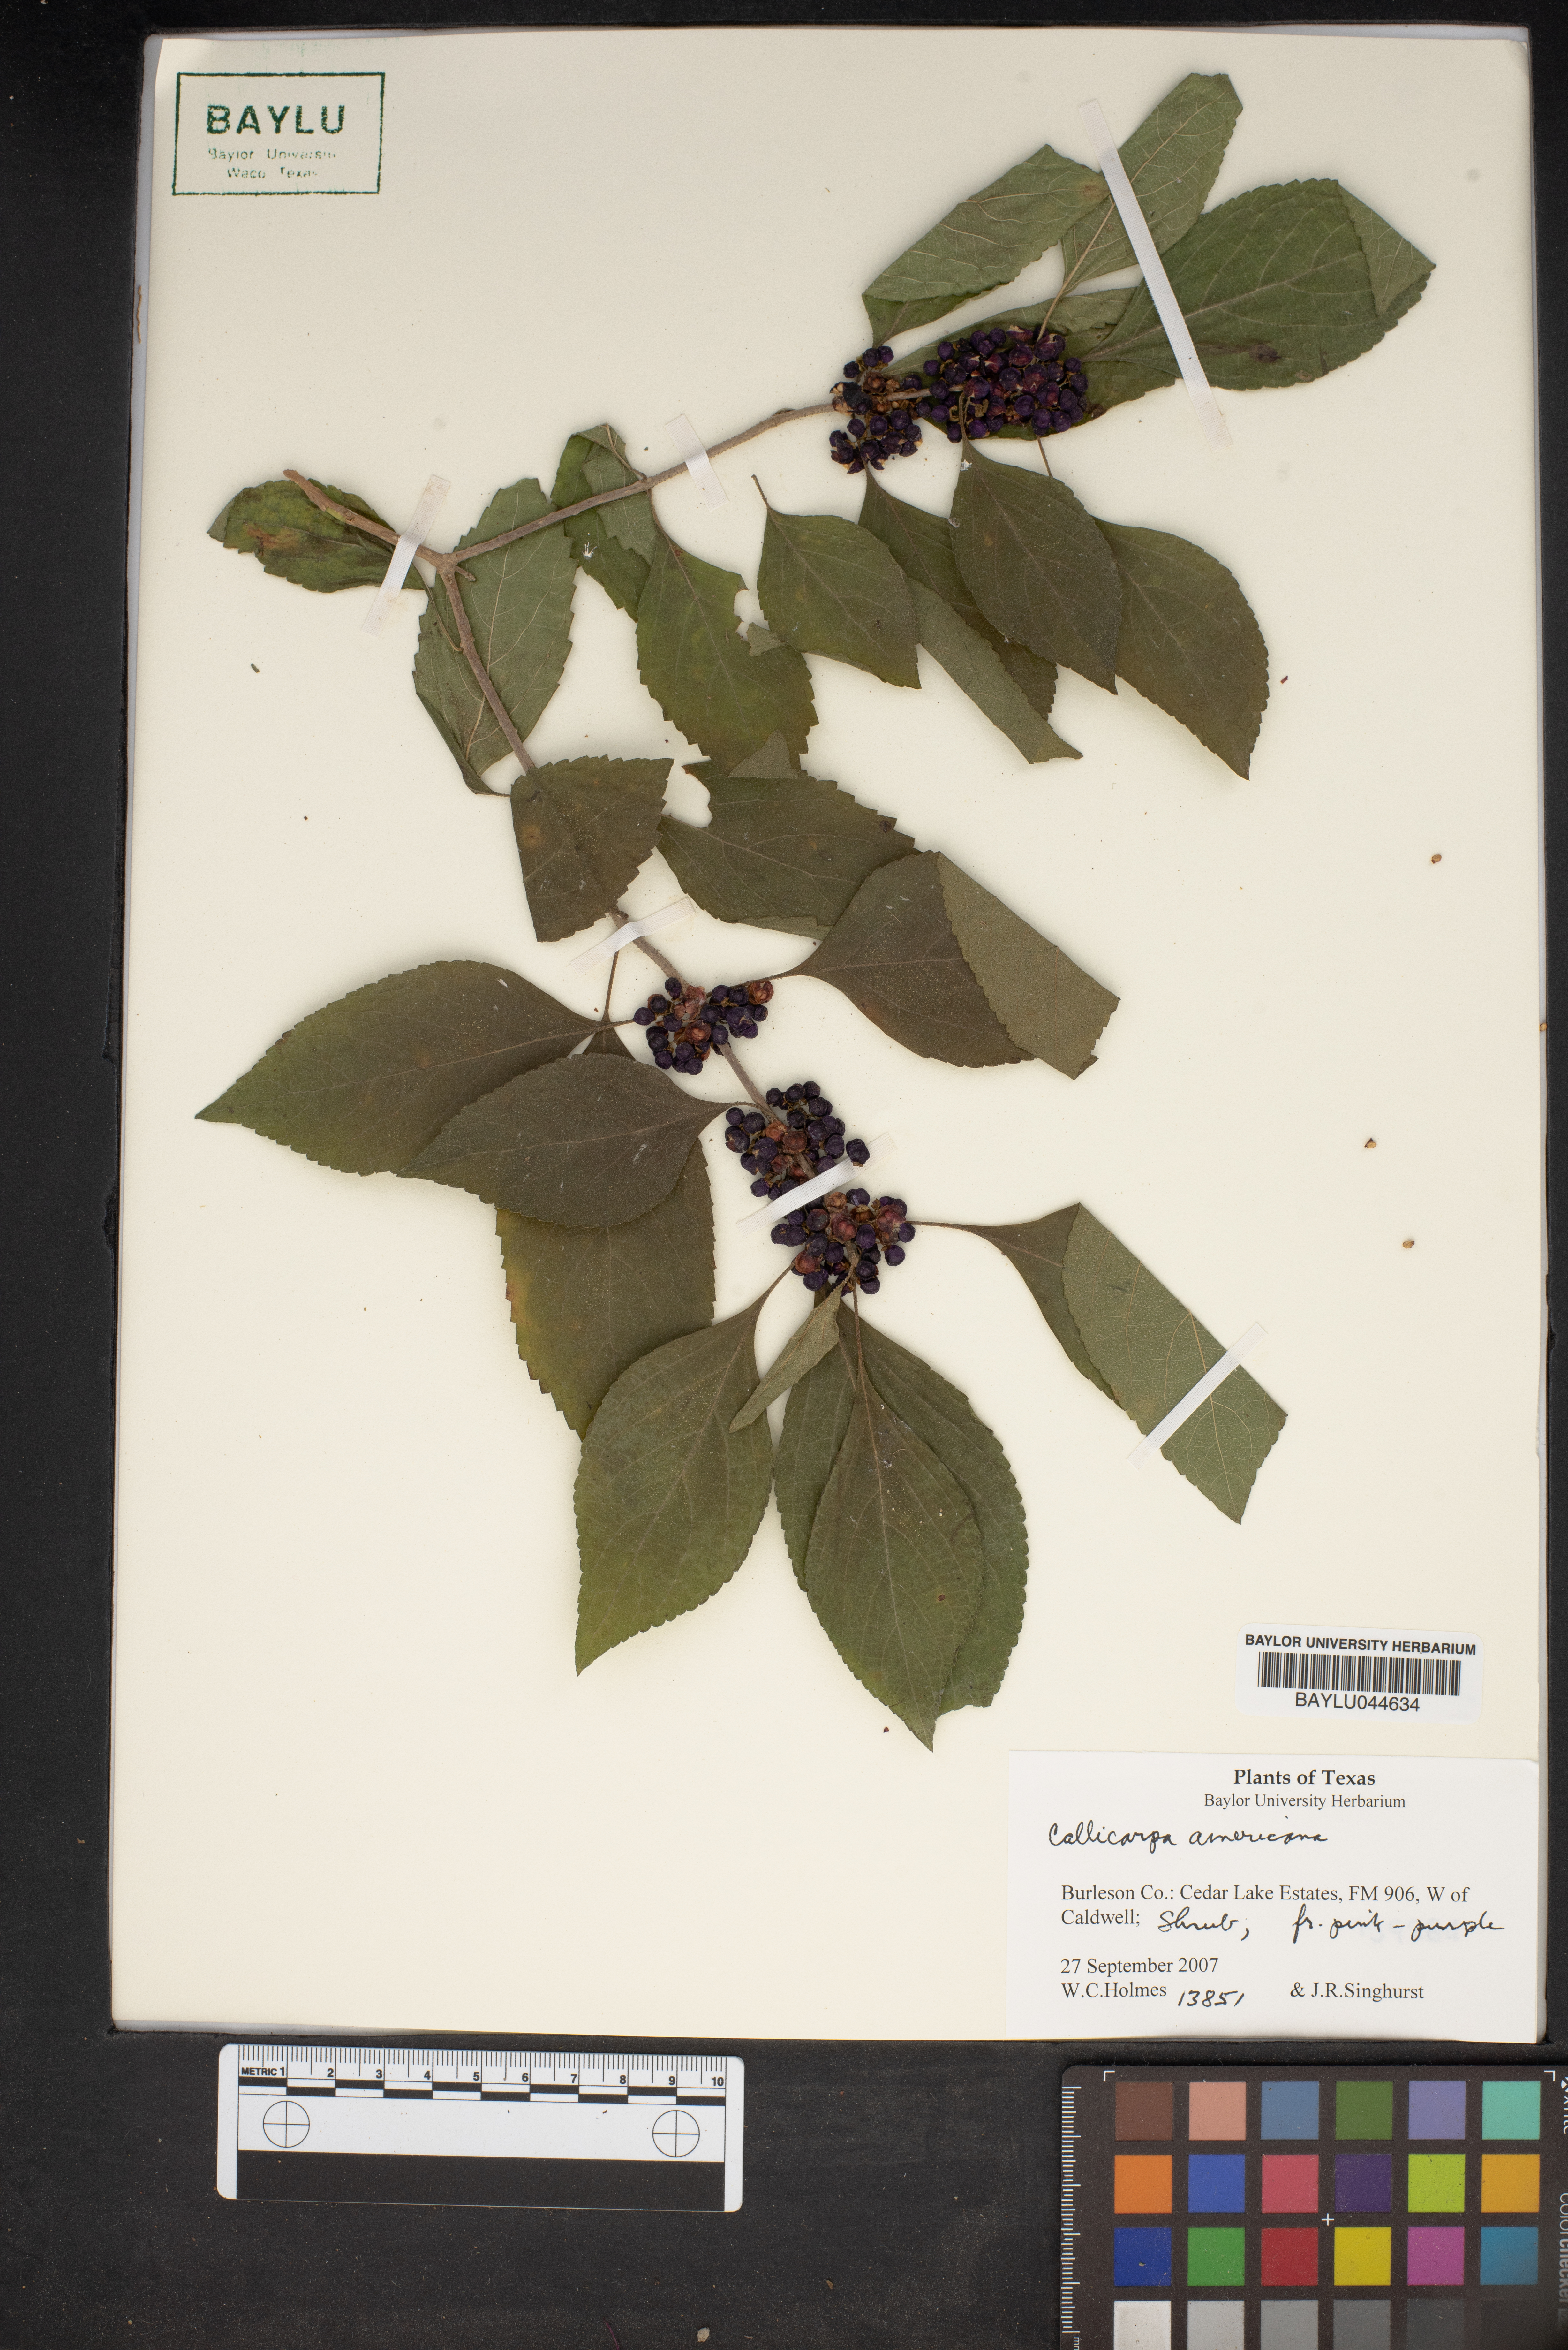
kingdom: Plantae
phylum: Tracheophyta
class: Magnoliopsida
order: Lamiales
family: Lamiaceae
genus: Callicarpa
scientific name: Callicarpa americana
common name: American beautyberry
